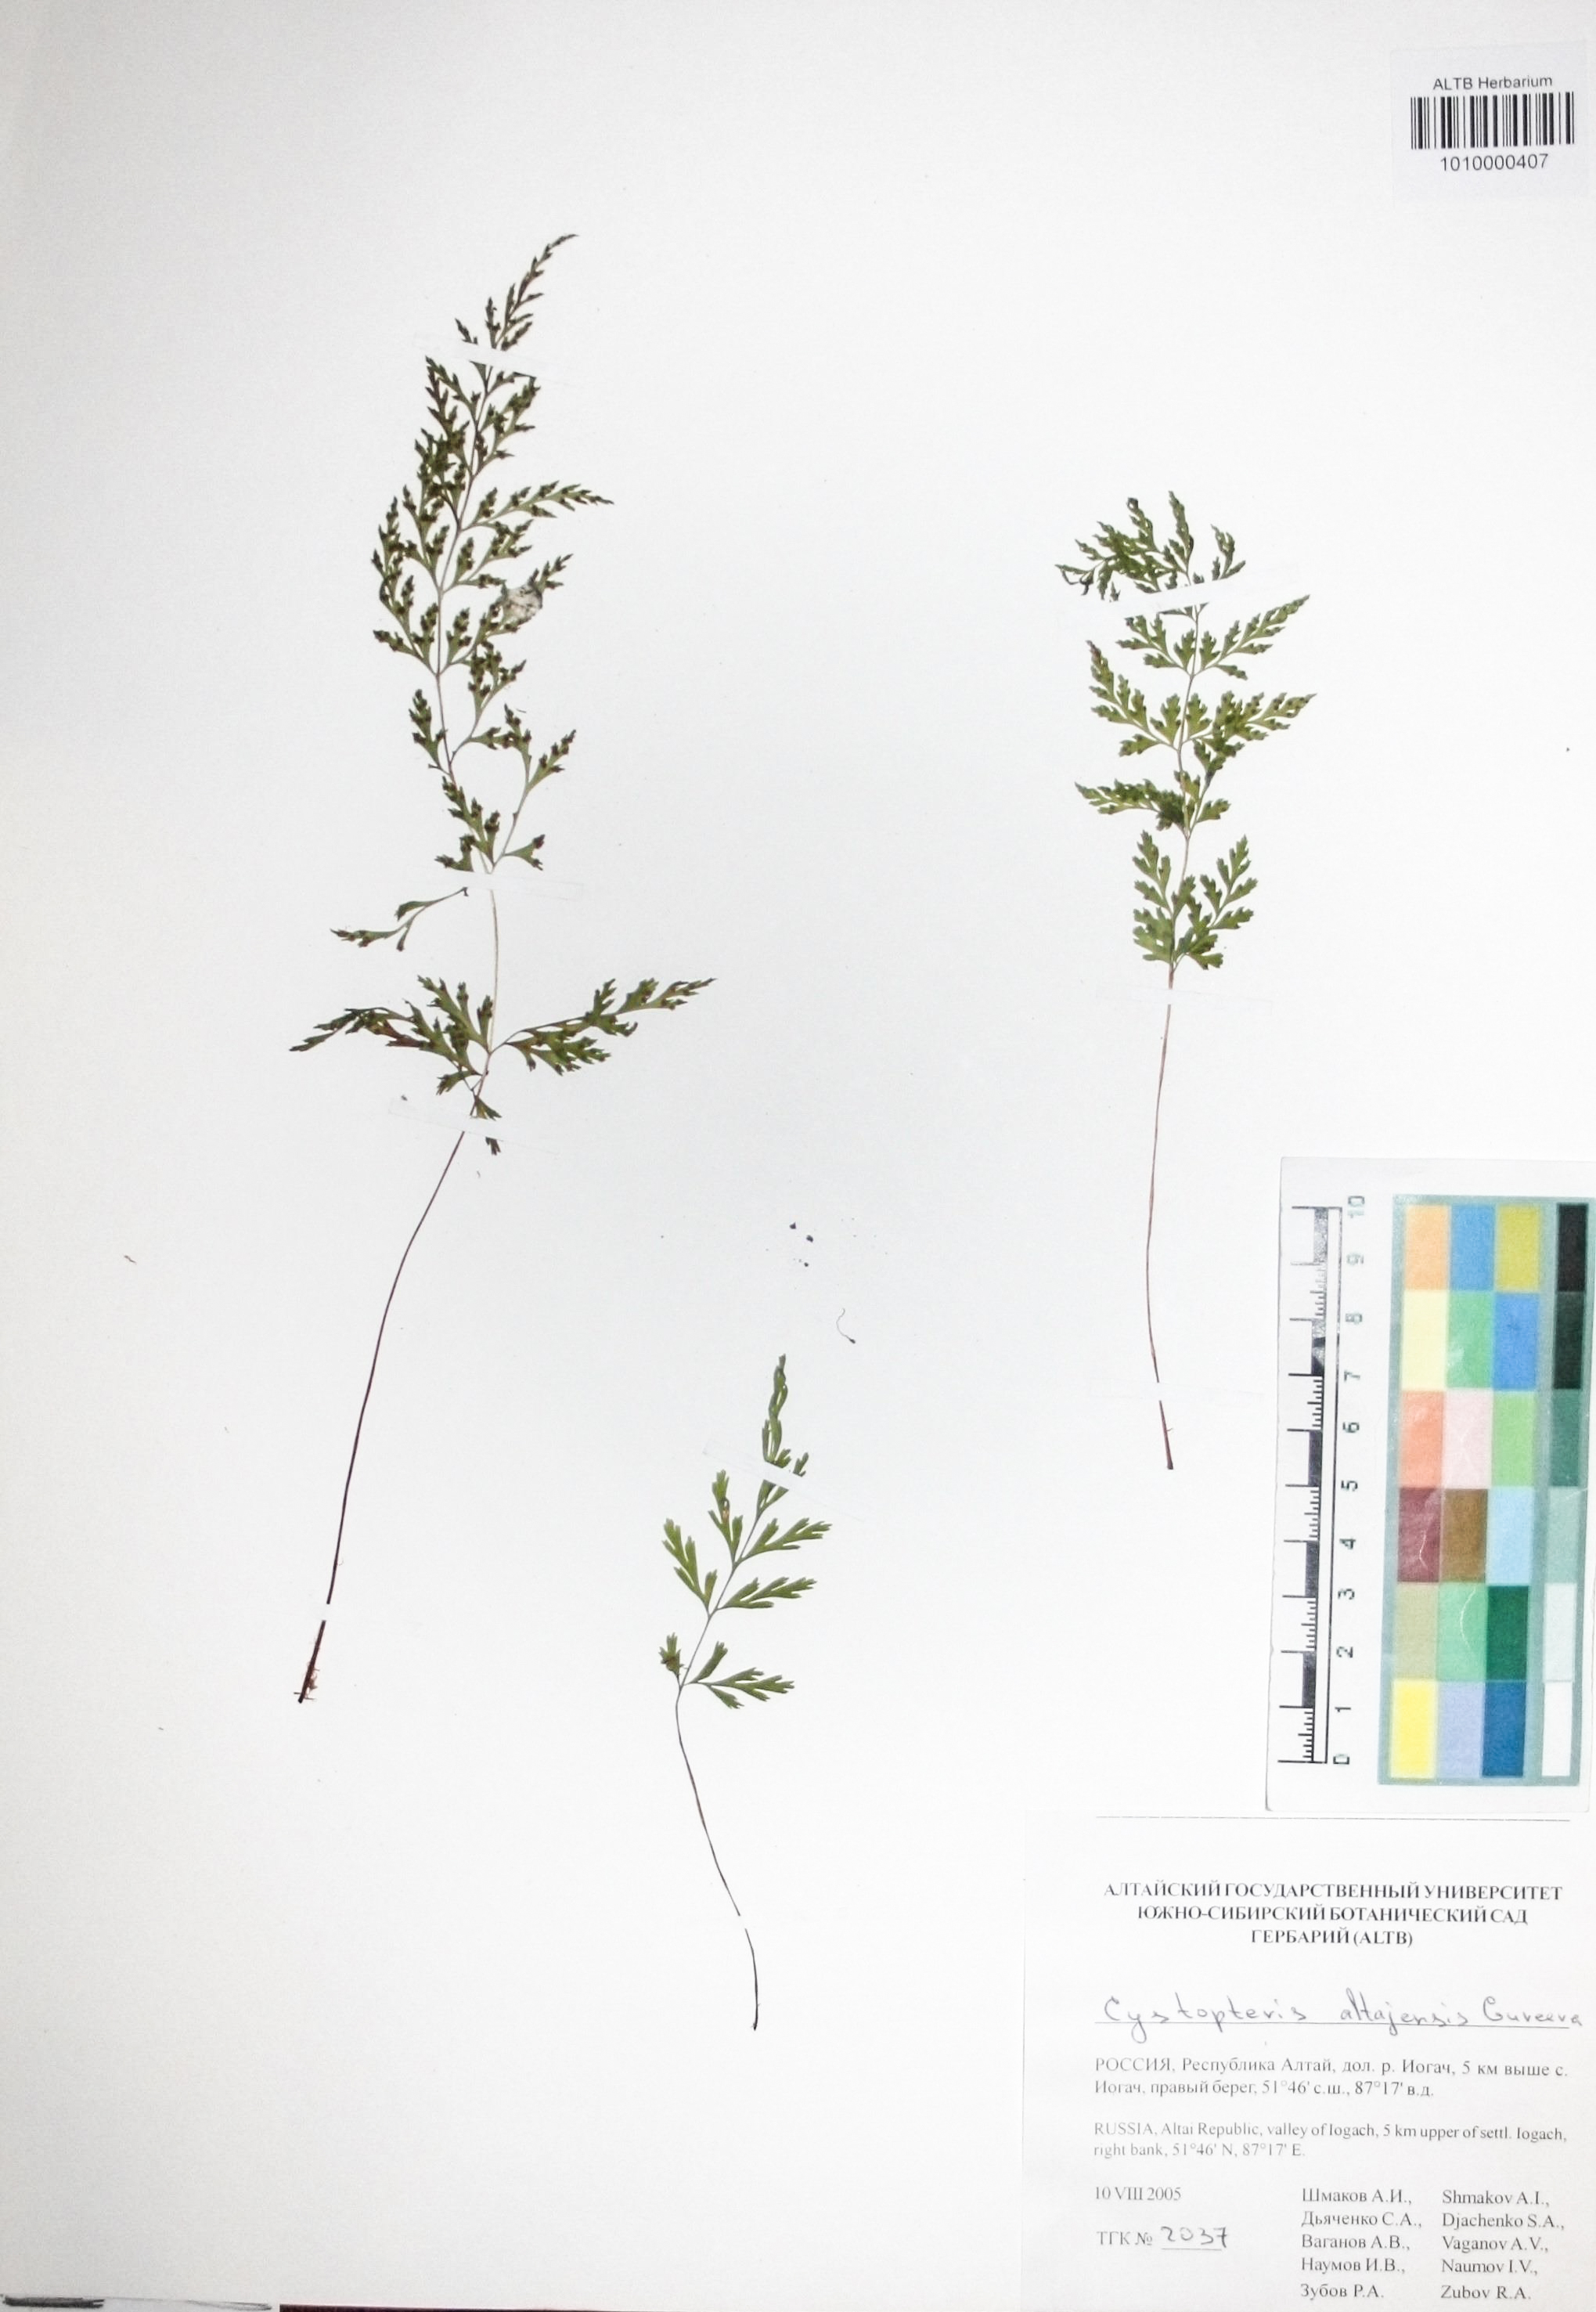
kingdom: Plantae
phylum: Tracheophyta
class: Polypodiopsida
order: Polypodiales
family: Cystopteridaceae
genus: Cystopteris
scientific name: Cystopteris diaphana
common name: Greenish bladder-fern
